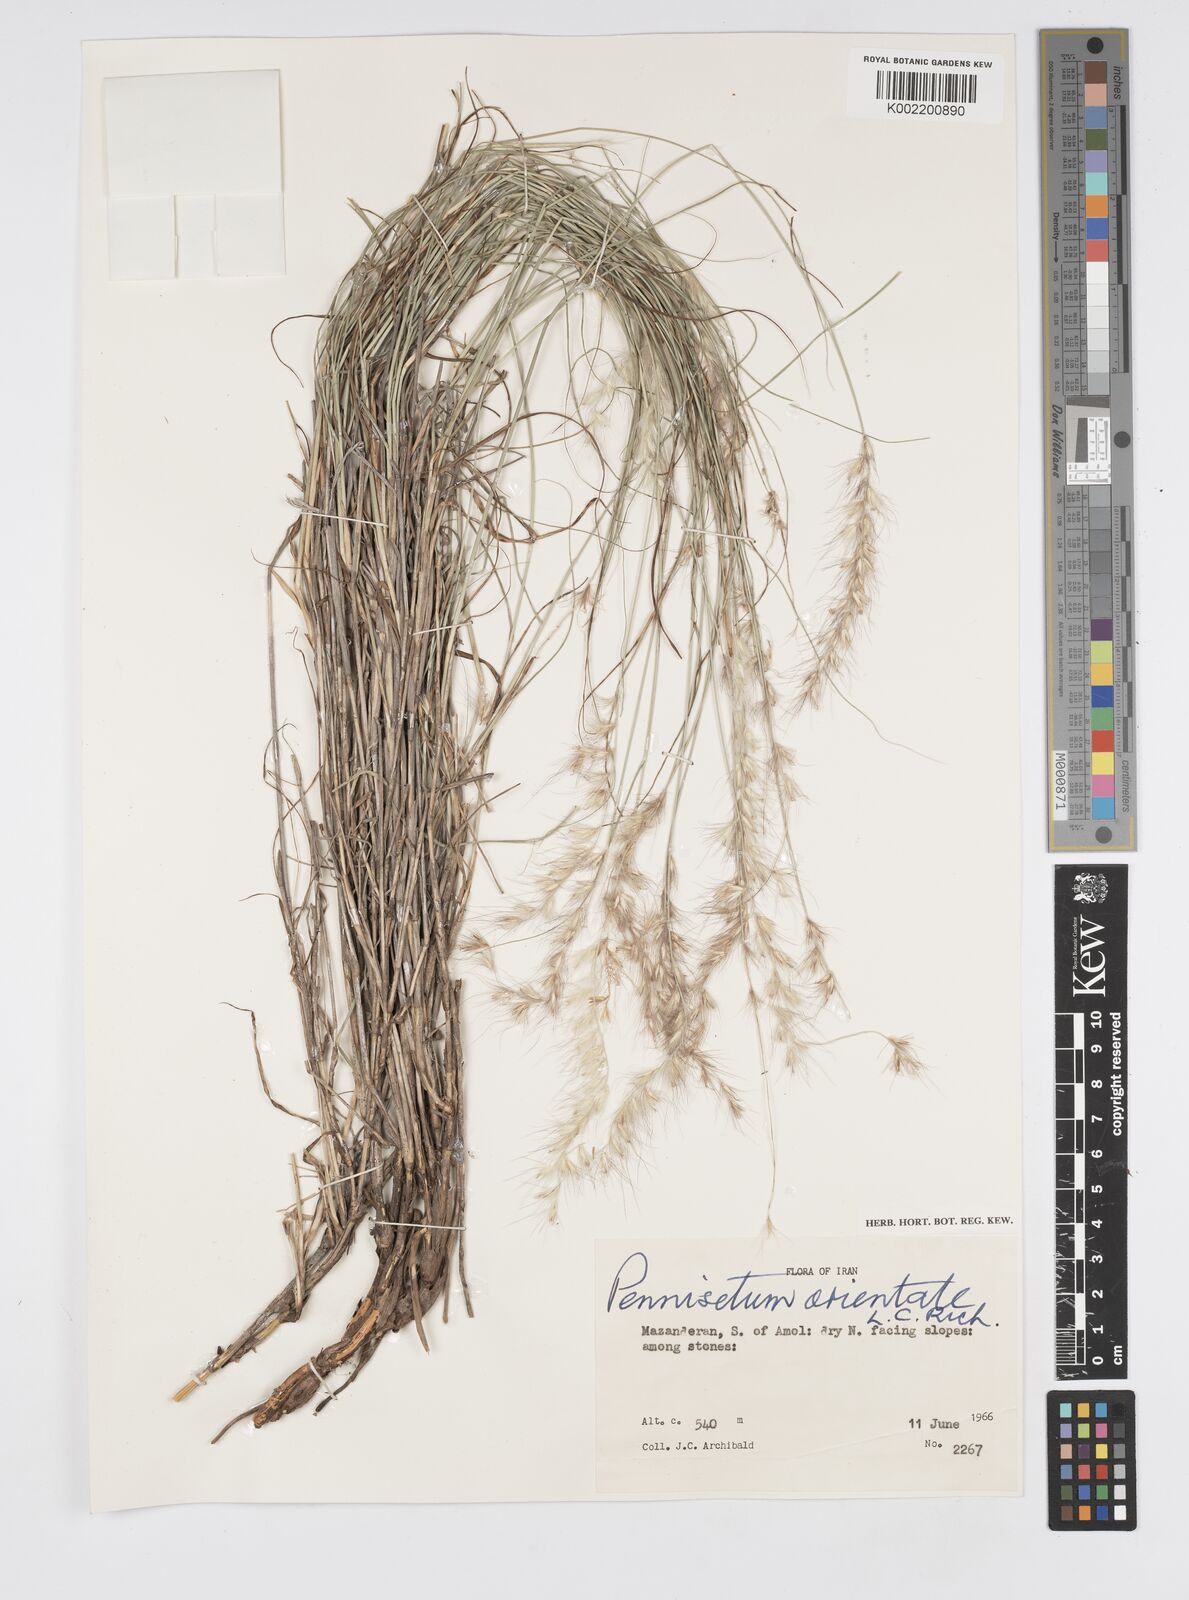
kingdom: Plantae
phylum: Tracheophyta
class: Liliopsida
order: Poales
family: Poaceae
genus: Cenchrus
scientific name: Cenchrus orientalis
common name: Oriental fountain grass
